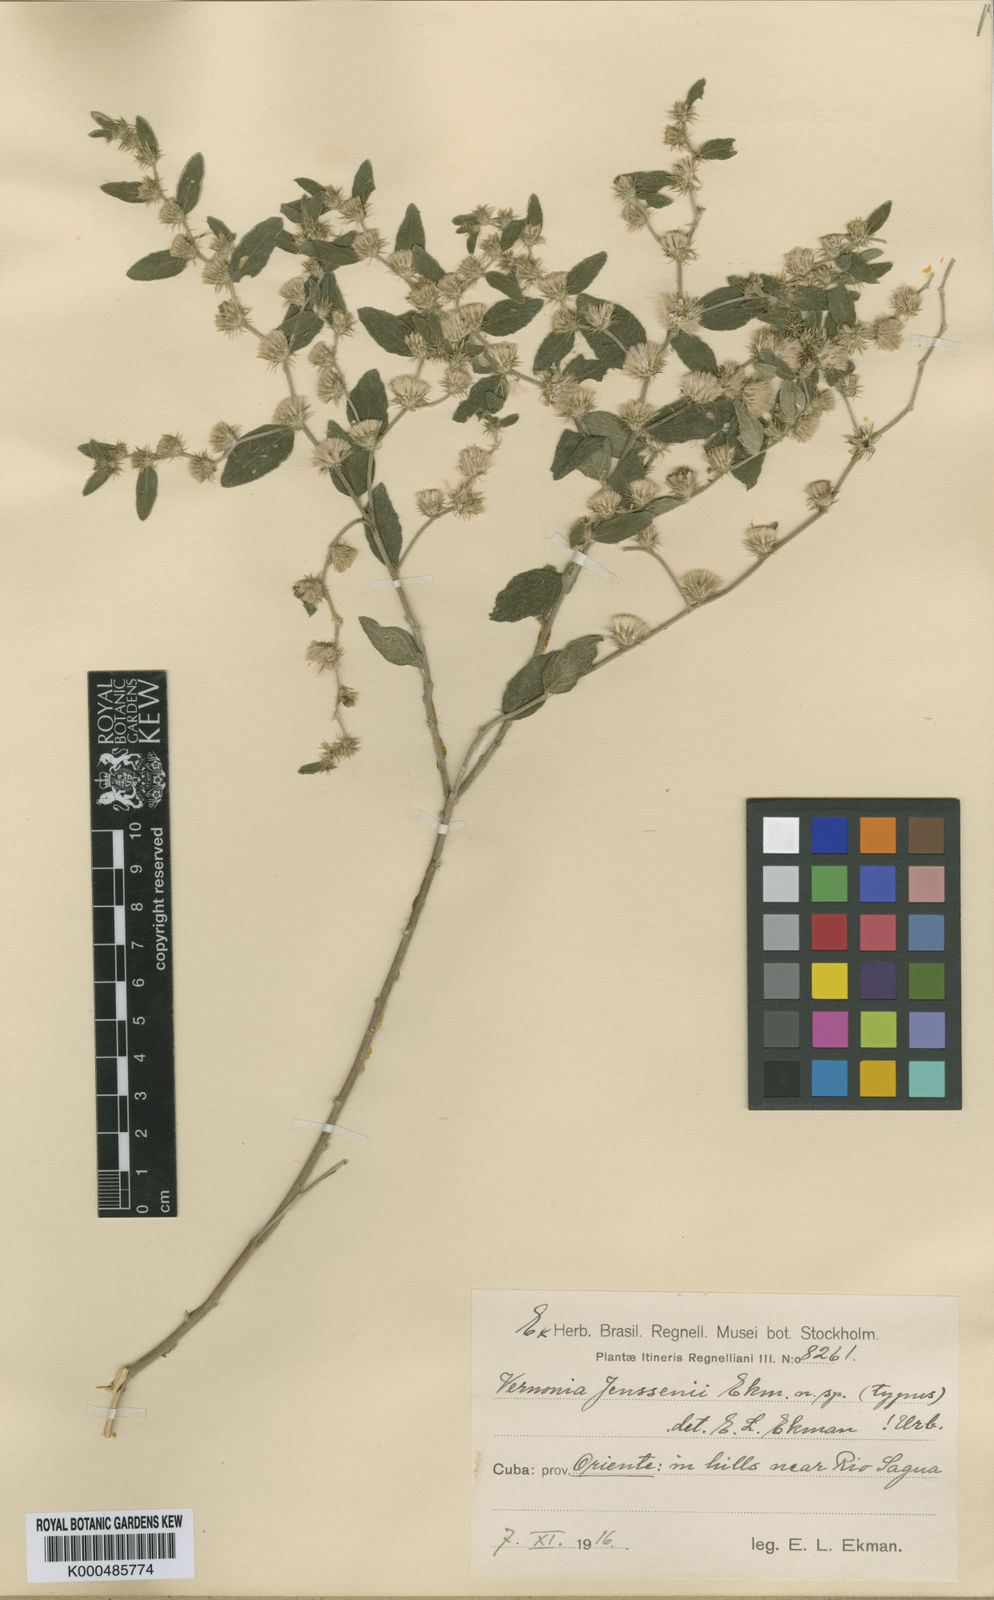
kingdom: Plantae
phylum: Tracheophyta
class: Magnoliopsida
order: Asterales
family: Asteraceae
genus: Vernonia
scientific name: Vernonia
